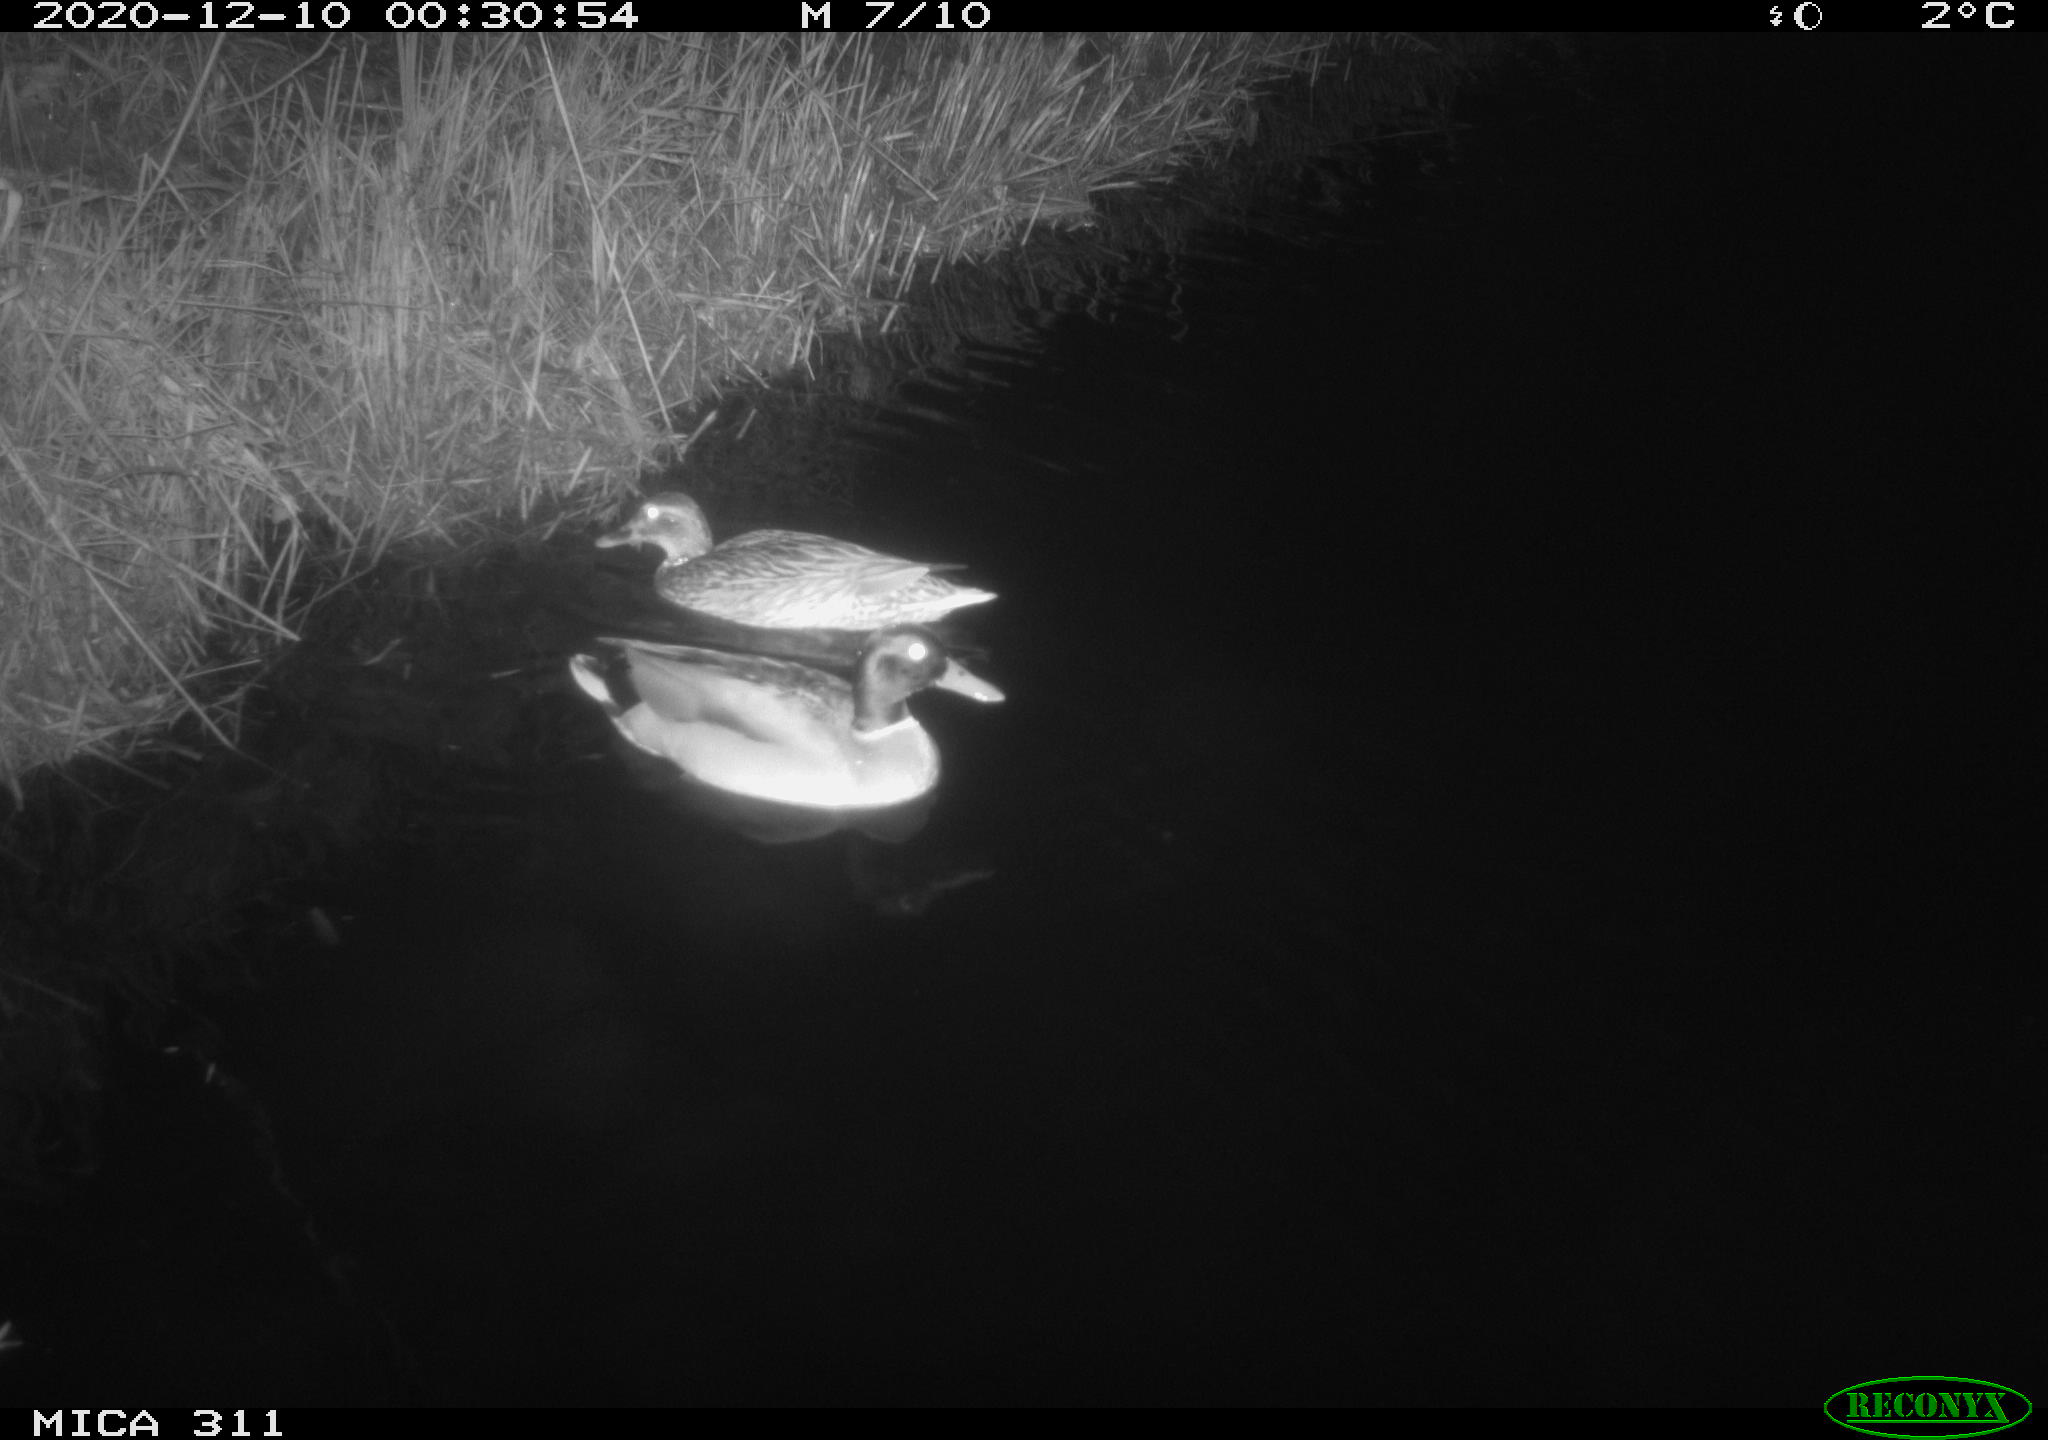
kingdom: Animalia
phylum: Chordata
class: Aves
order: Anseriformes
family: Anatidae
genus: Anas
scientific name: Anas platyrhynchos
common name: Mallard
